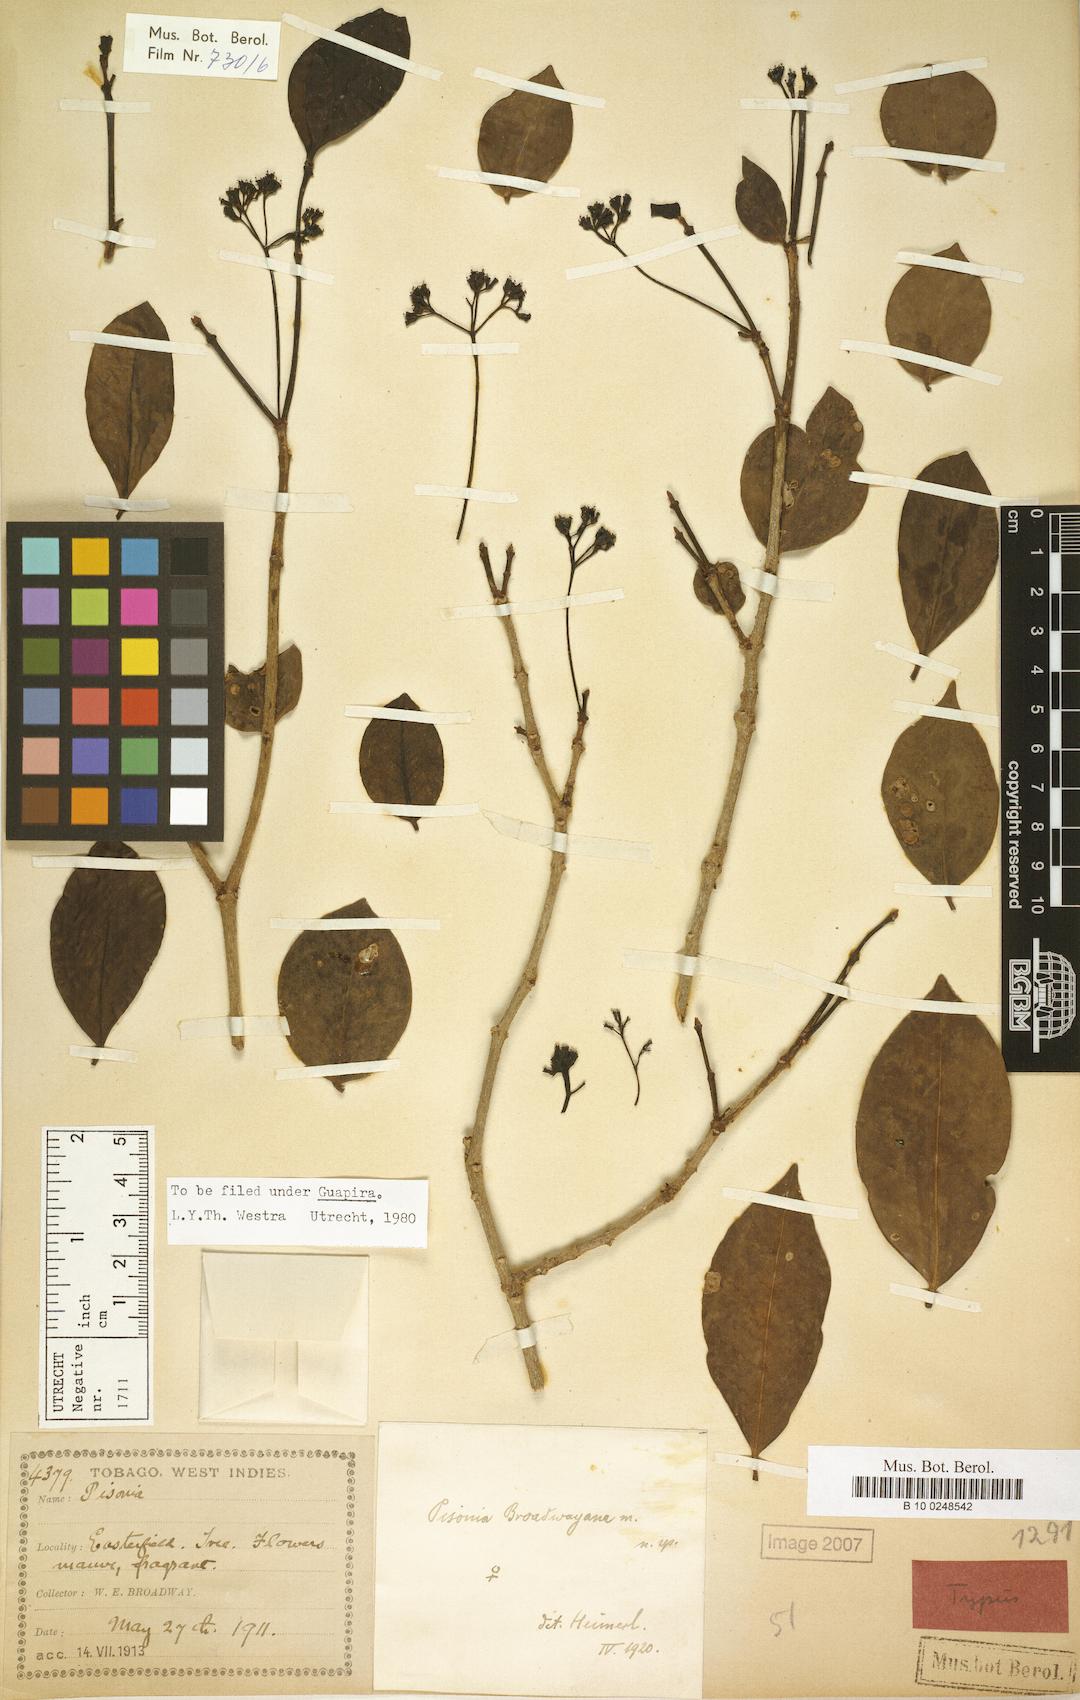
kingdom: Plantae
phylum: Tracheophyta
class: Magnoliopsida
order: Caryophyllales
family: Nyctaginaceae
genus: Guapira
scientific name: Guapira eggersiana
